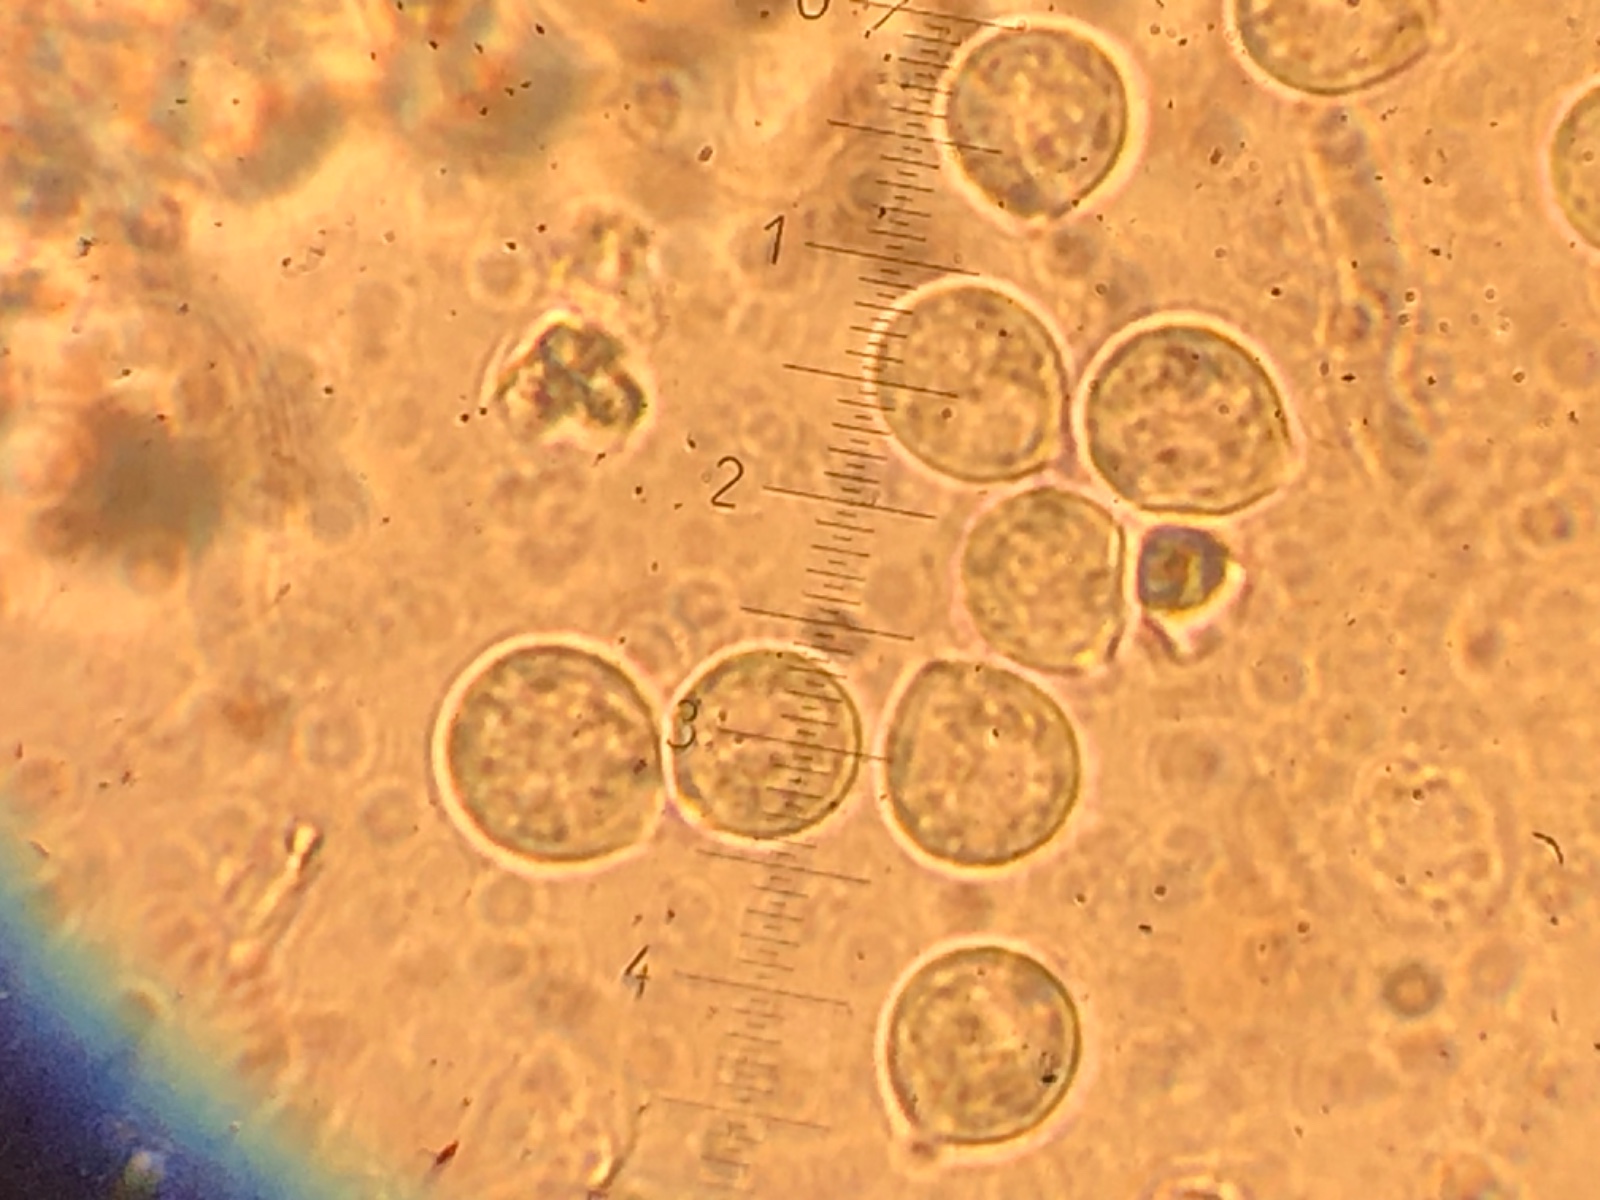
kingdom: Fungi
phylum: Basidiomycota
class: Agaricomycetes
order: Agaricales
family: Porotheleaceae
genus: Phloeomana
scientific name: Phloeomana alba
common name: hvidlig huesvamp
